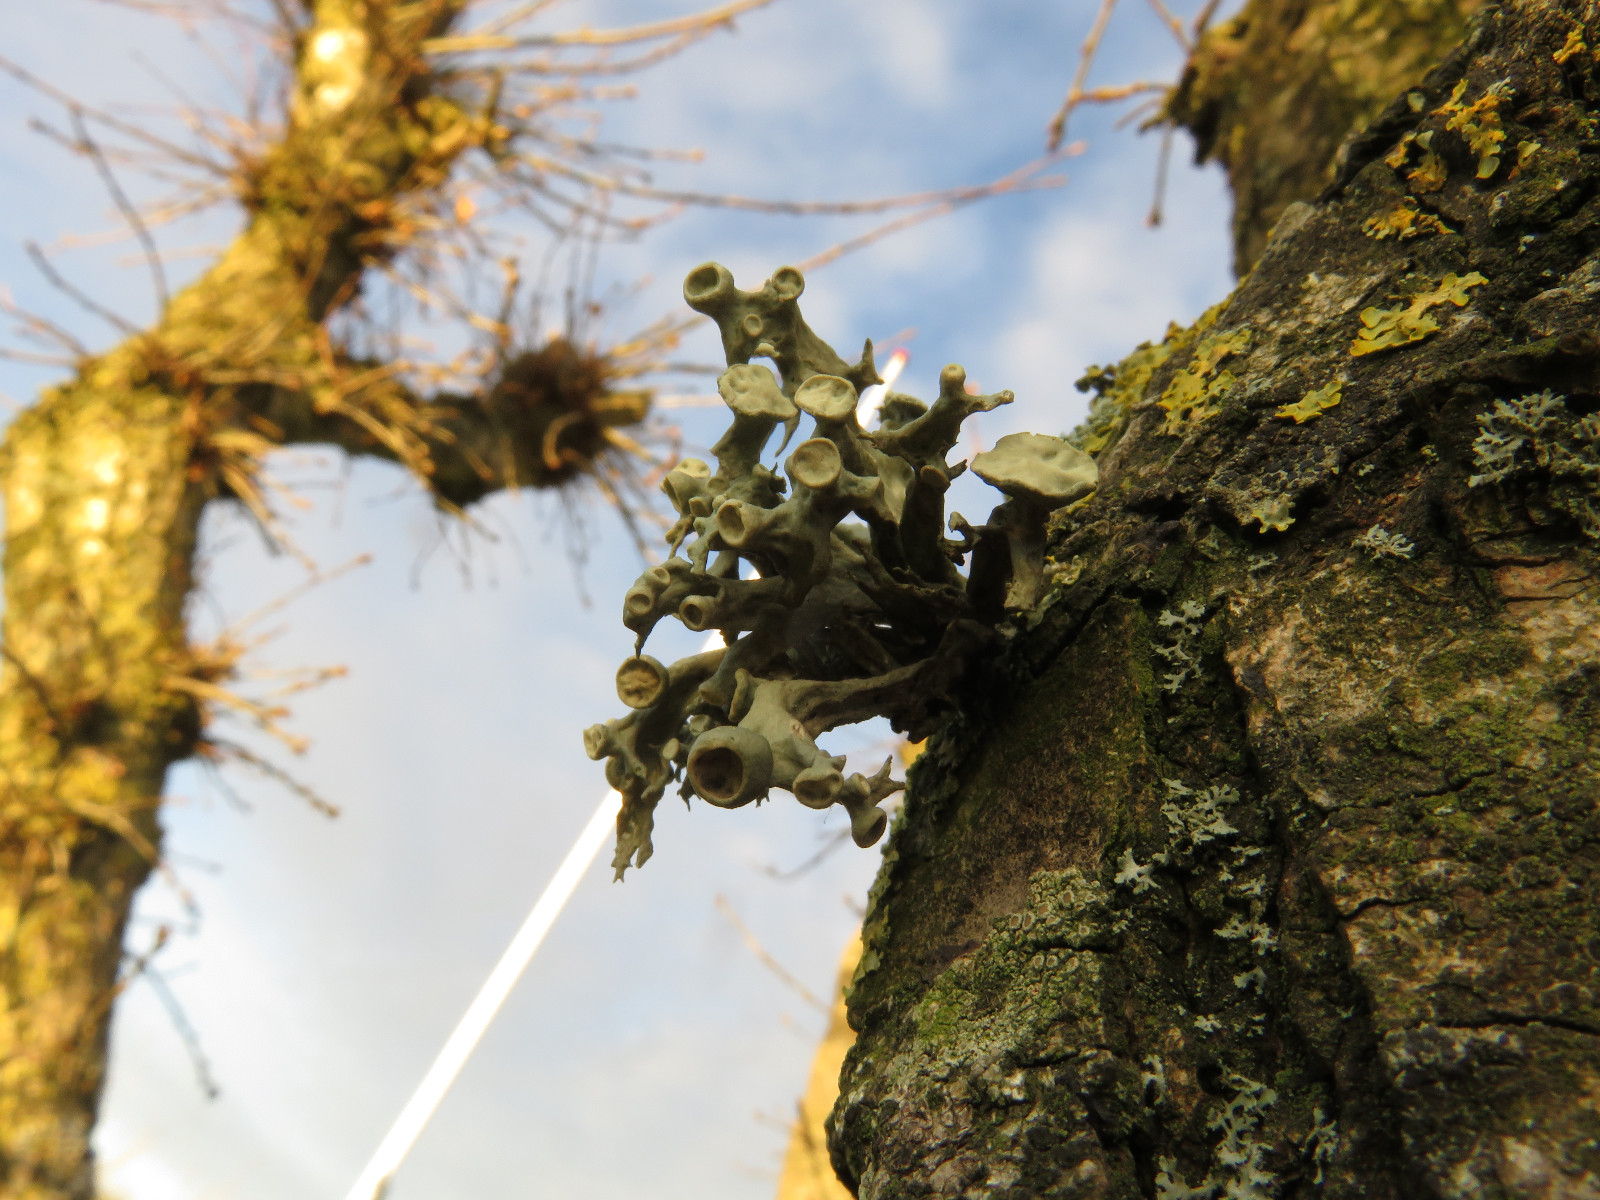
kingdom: Fungi
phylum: Ascomycota
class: Lecanoromycetes
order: Lecanorales
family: Ramalinaceae
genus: Ramalina
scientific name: Ramalina fastigiata
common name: tue-grenlav
